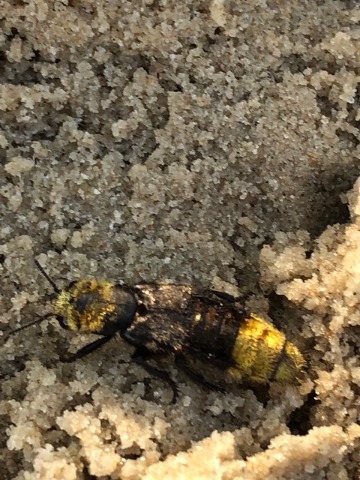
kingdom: Animalia
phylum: Arthropoda
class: Insecta
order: Coleoptera
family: Staphylinidae
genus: Emus
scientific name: Emus hirtus
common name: Humlerovbille
